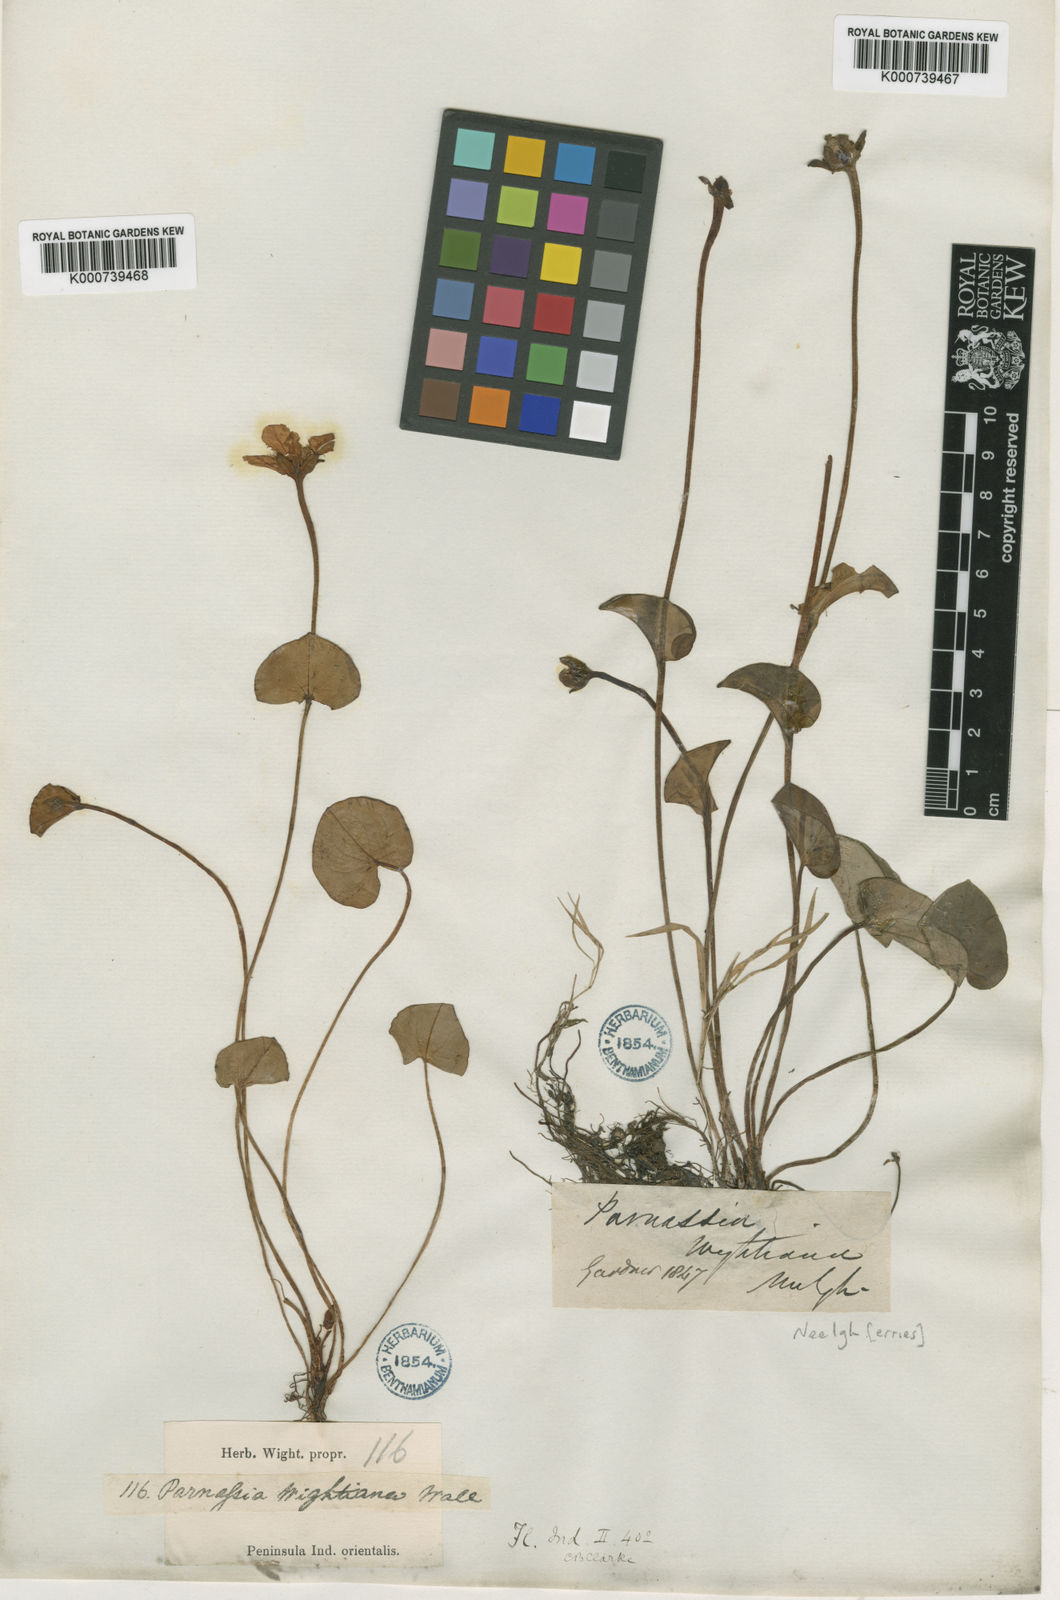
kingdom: Plantae
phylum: Tracheophyta
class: Magnoliopsida
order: Celastrales
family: Parnassiaceae
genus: Parnassia
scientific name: Parnassia wightiana
